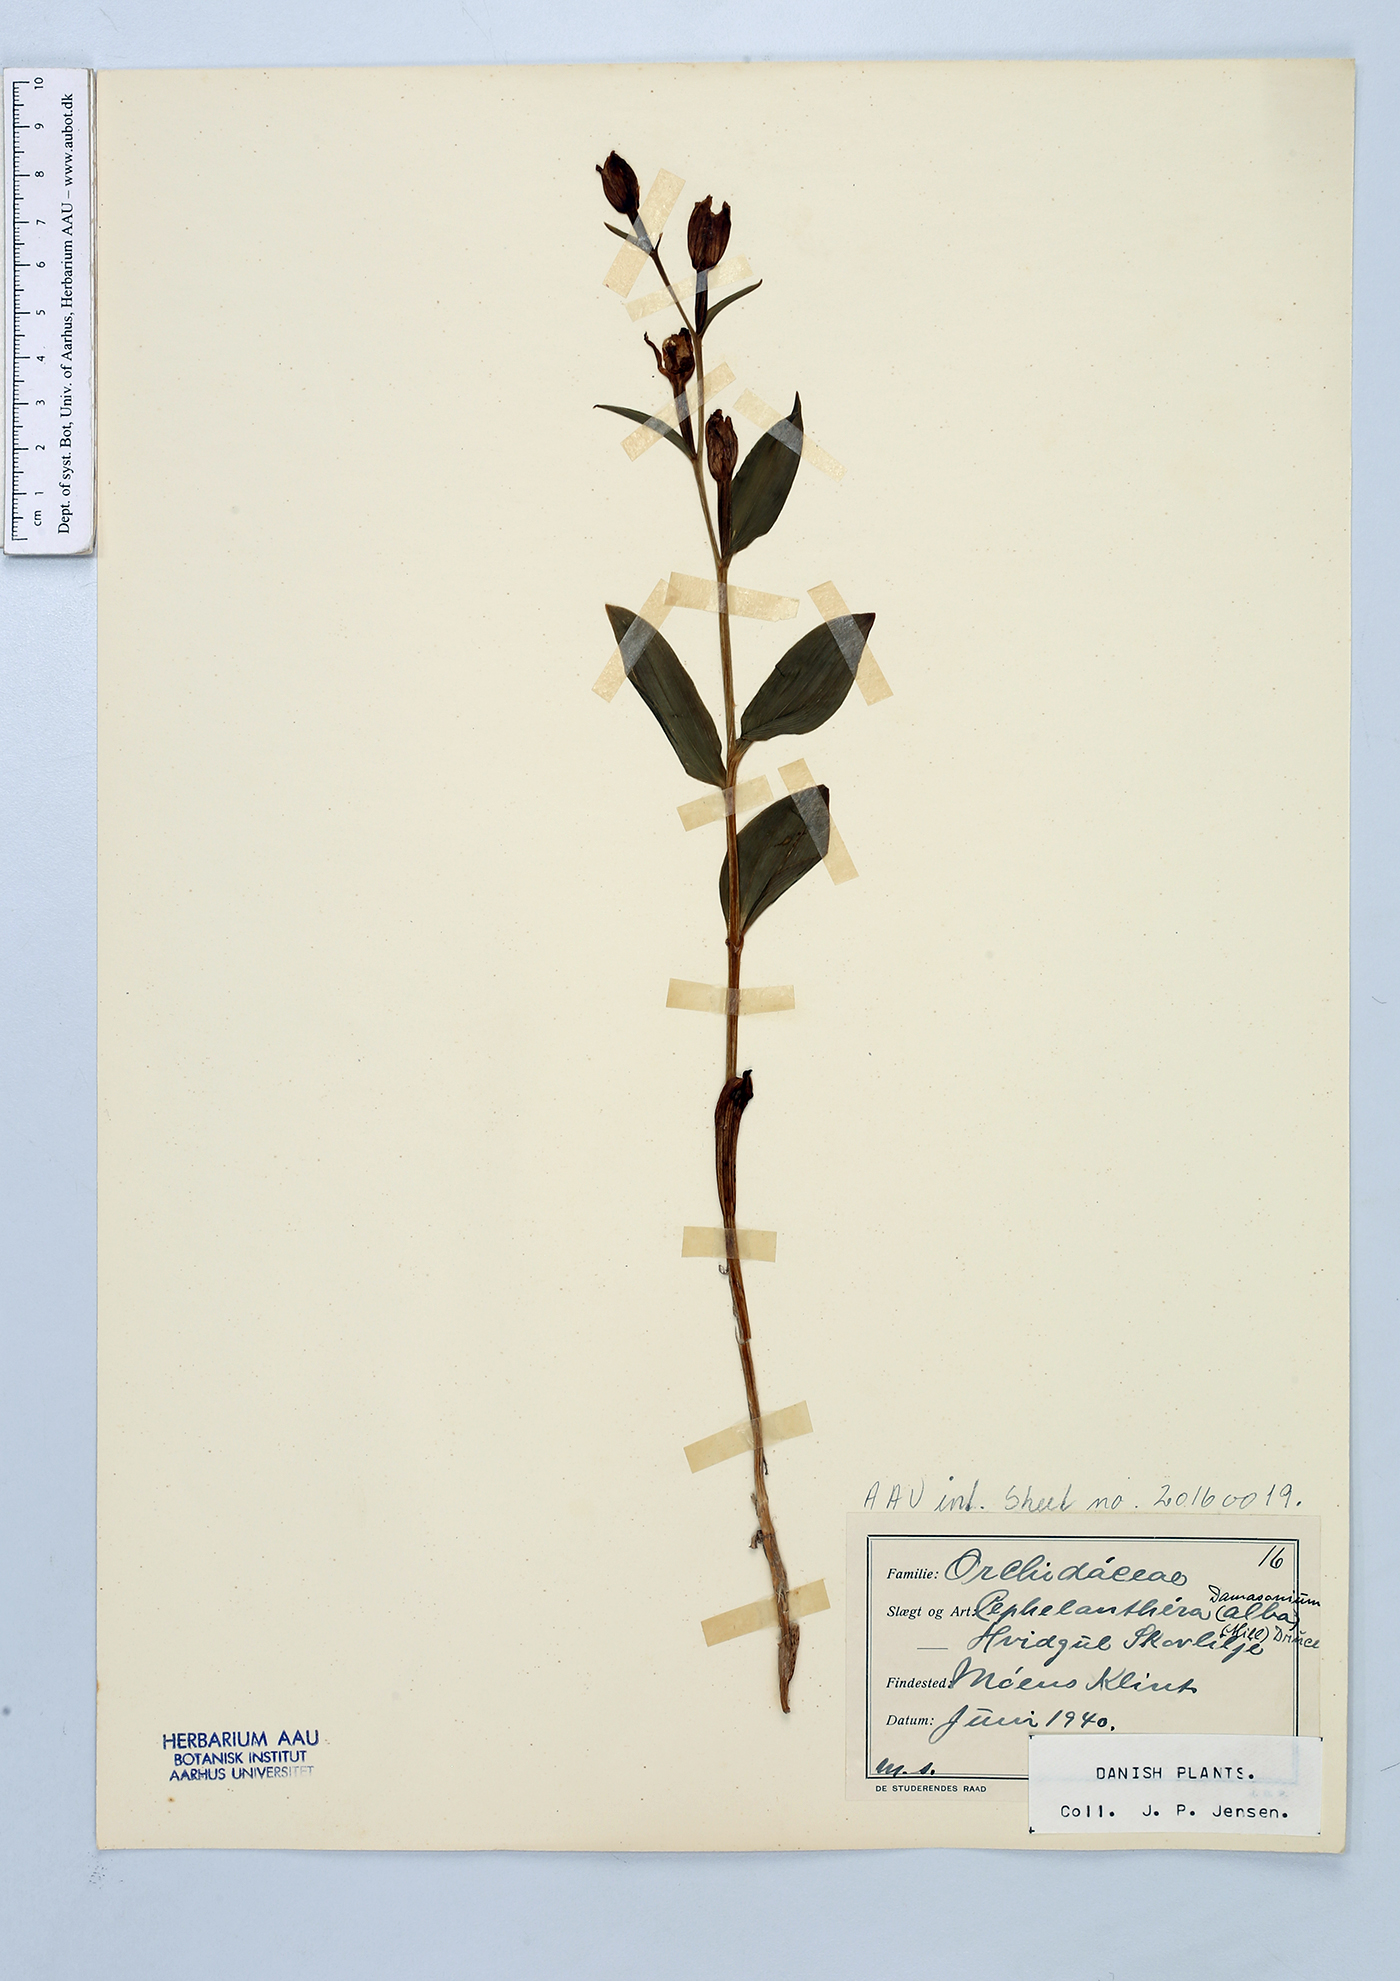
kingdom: Plantae
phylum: Tracheophyta
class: Liliopsida
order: Asparagales
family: Orchidaceae
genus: Cephalanthera
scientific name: Cephalanthera damasonium
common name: White helleborine
